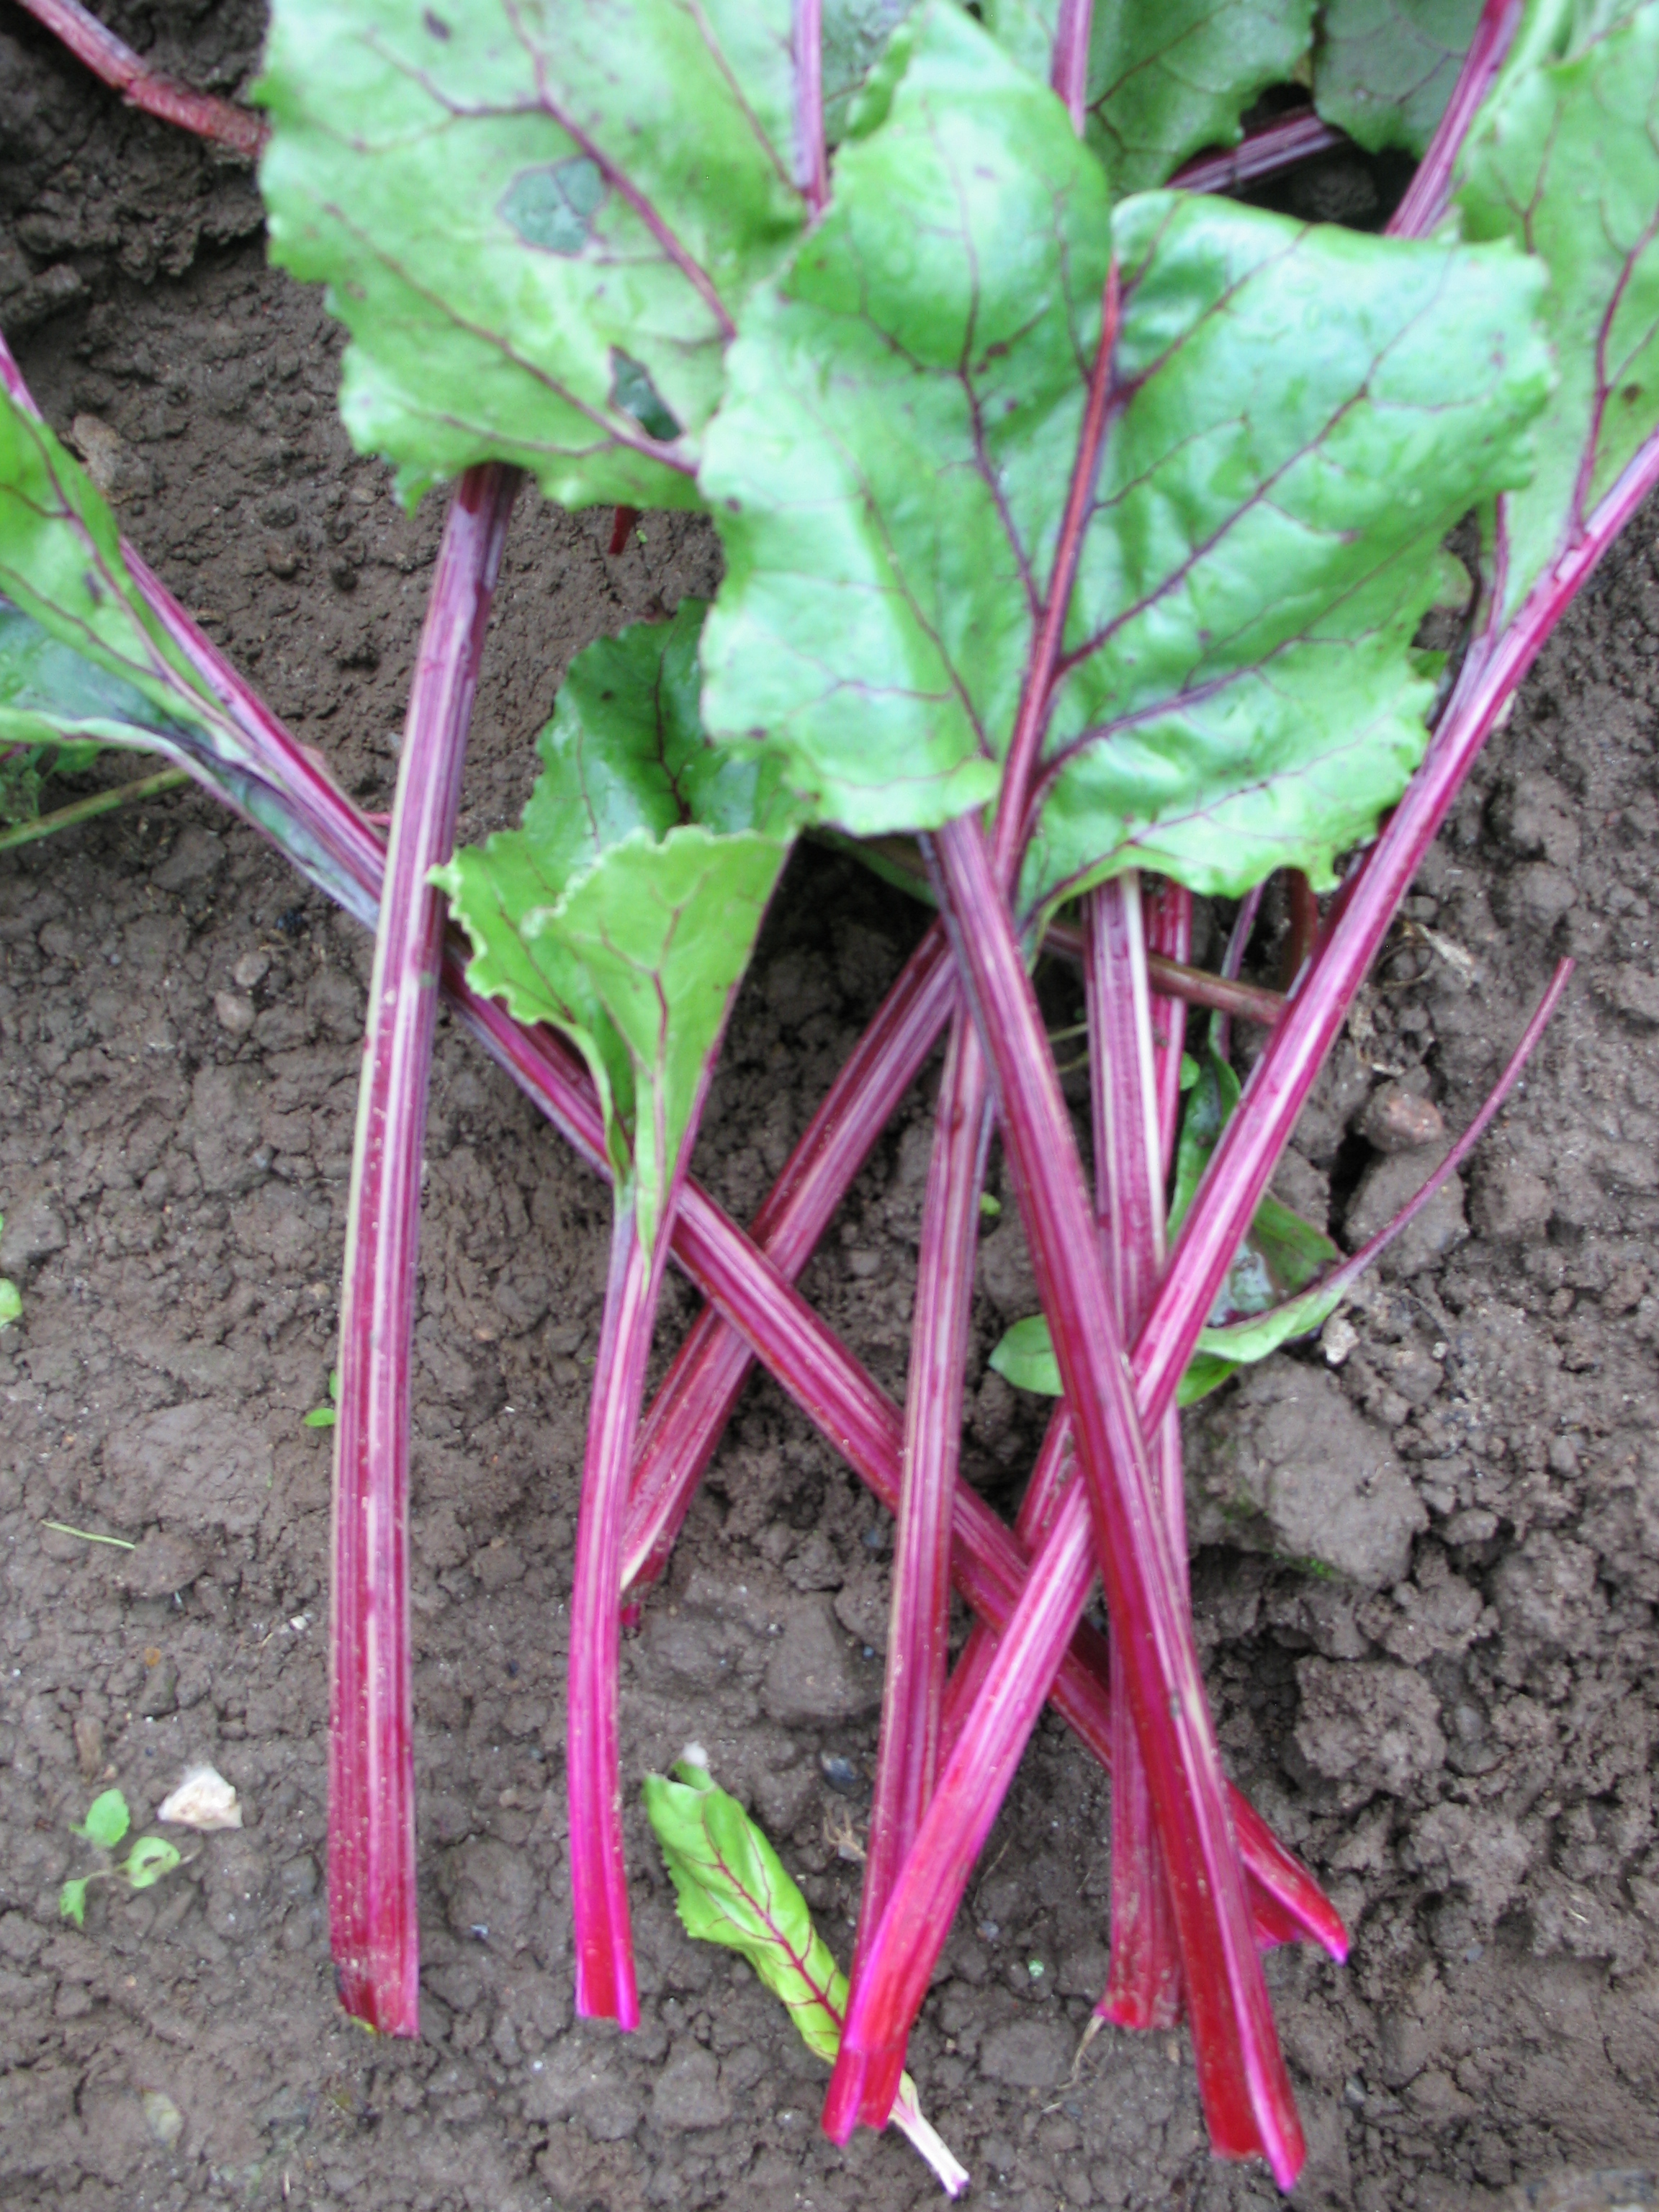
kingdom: Plantae
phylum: Tracheophyta
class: Magnoliopsida
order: Caryophyllales
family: Amaranthaceae
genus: Beta
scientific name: Beta vulgaris
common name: Beet
